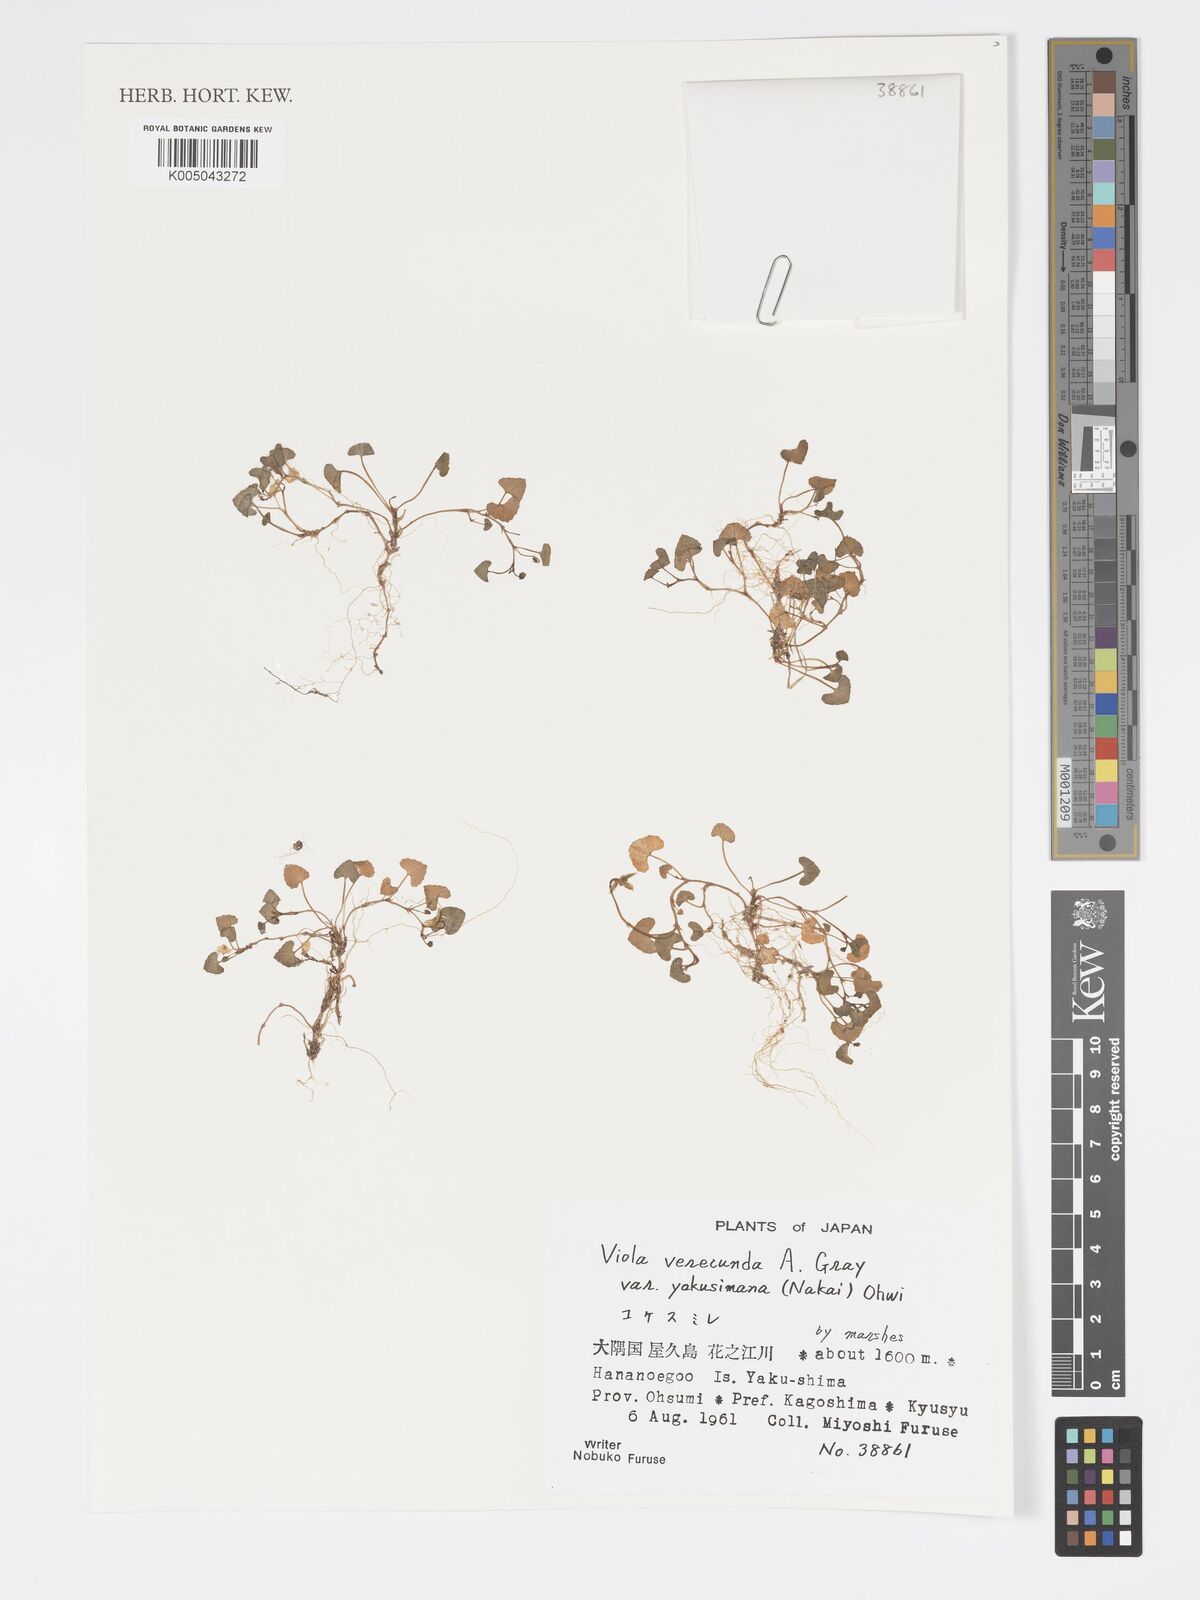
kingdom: Plantae
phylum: Tracheophyta
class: Magnoliopsida
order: Malpighiales
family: Violaceae
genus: Viola
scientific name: Viola hamiltoniana
